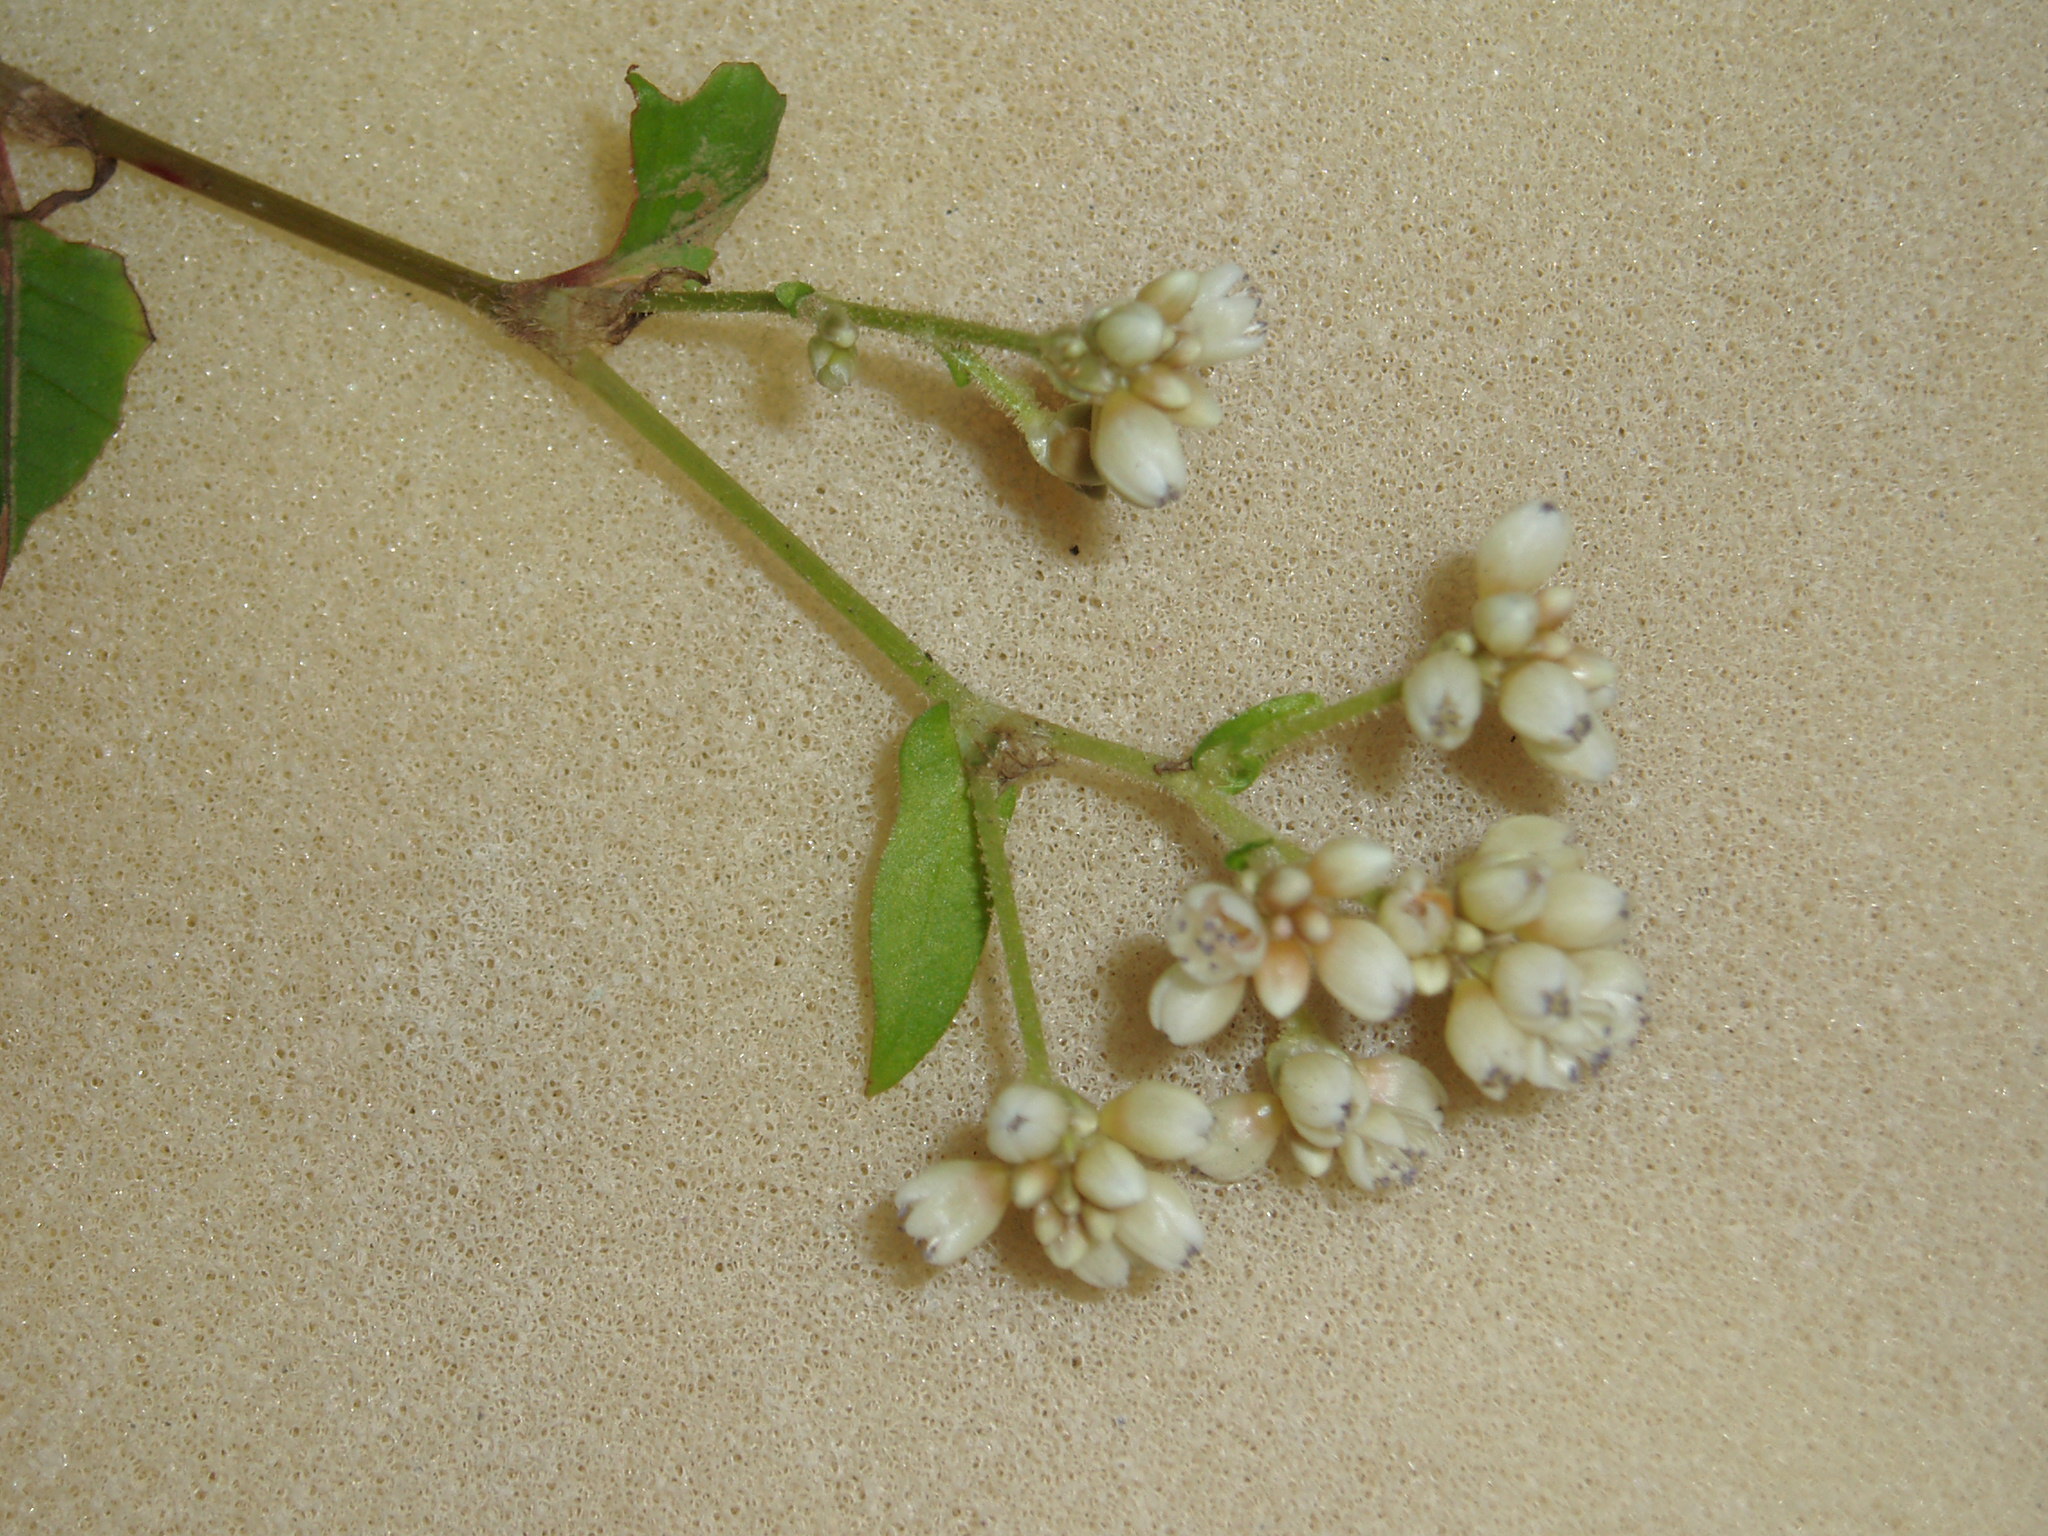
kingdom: Plantae
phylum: Tracheophyta
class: Magnoliopsida
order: Caryophyllales
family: Polygonaceae
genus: Persicaria
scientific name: Persicaria chinensis
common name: Chinese knotweed
